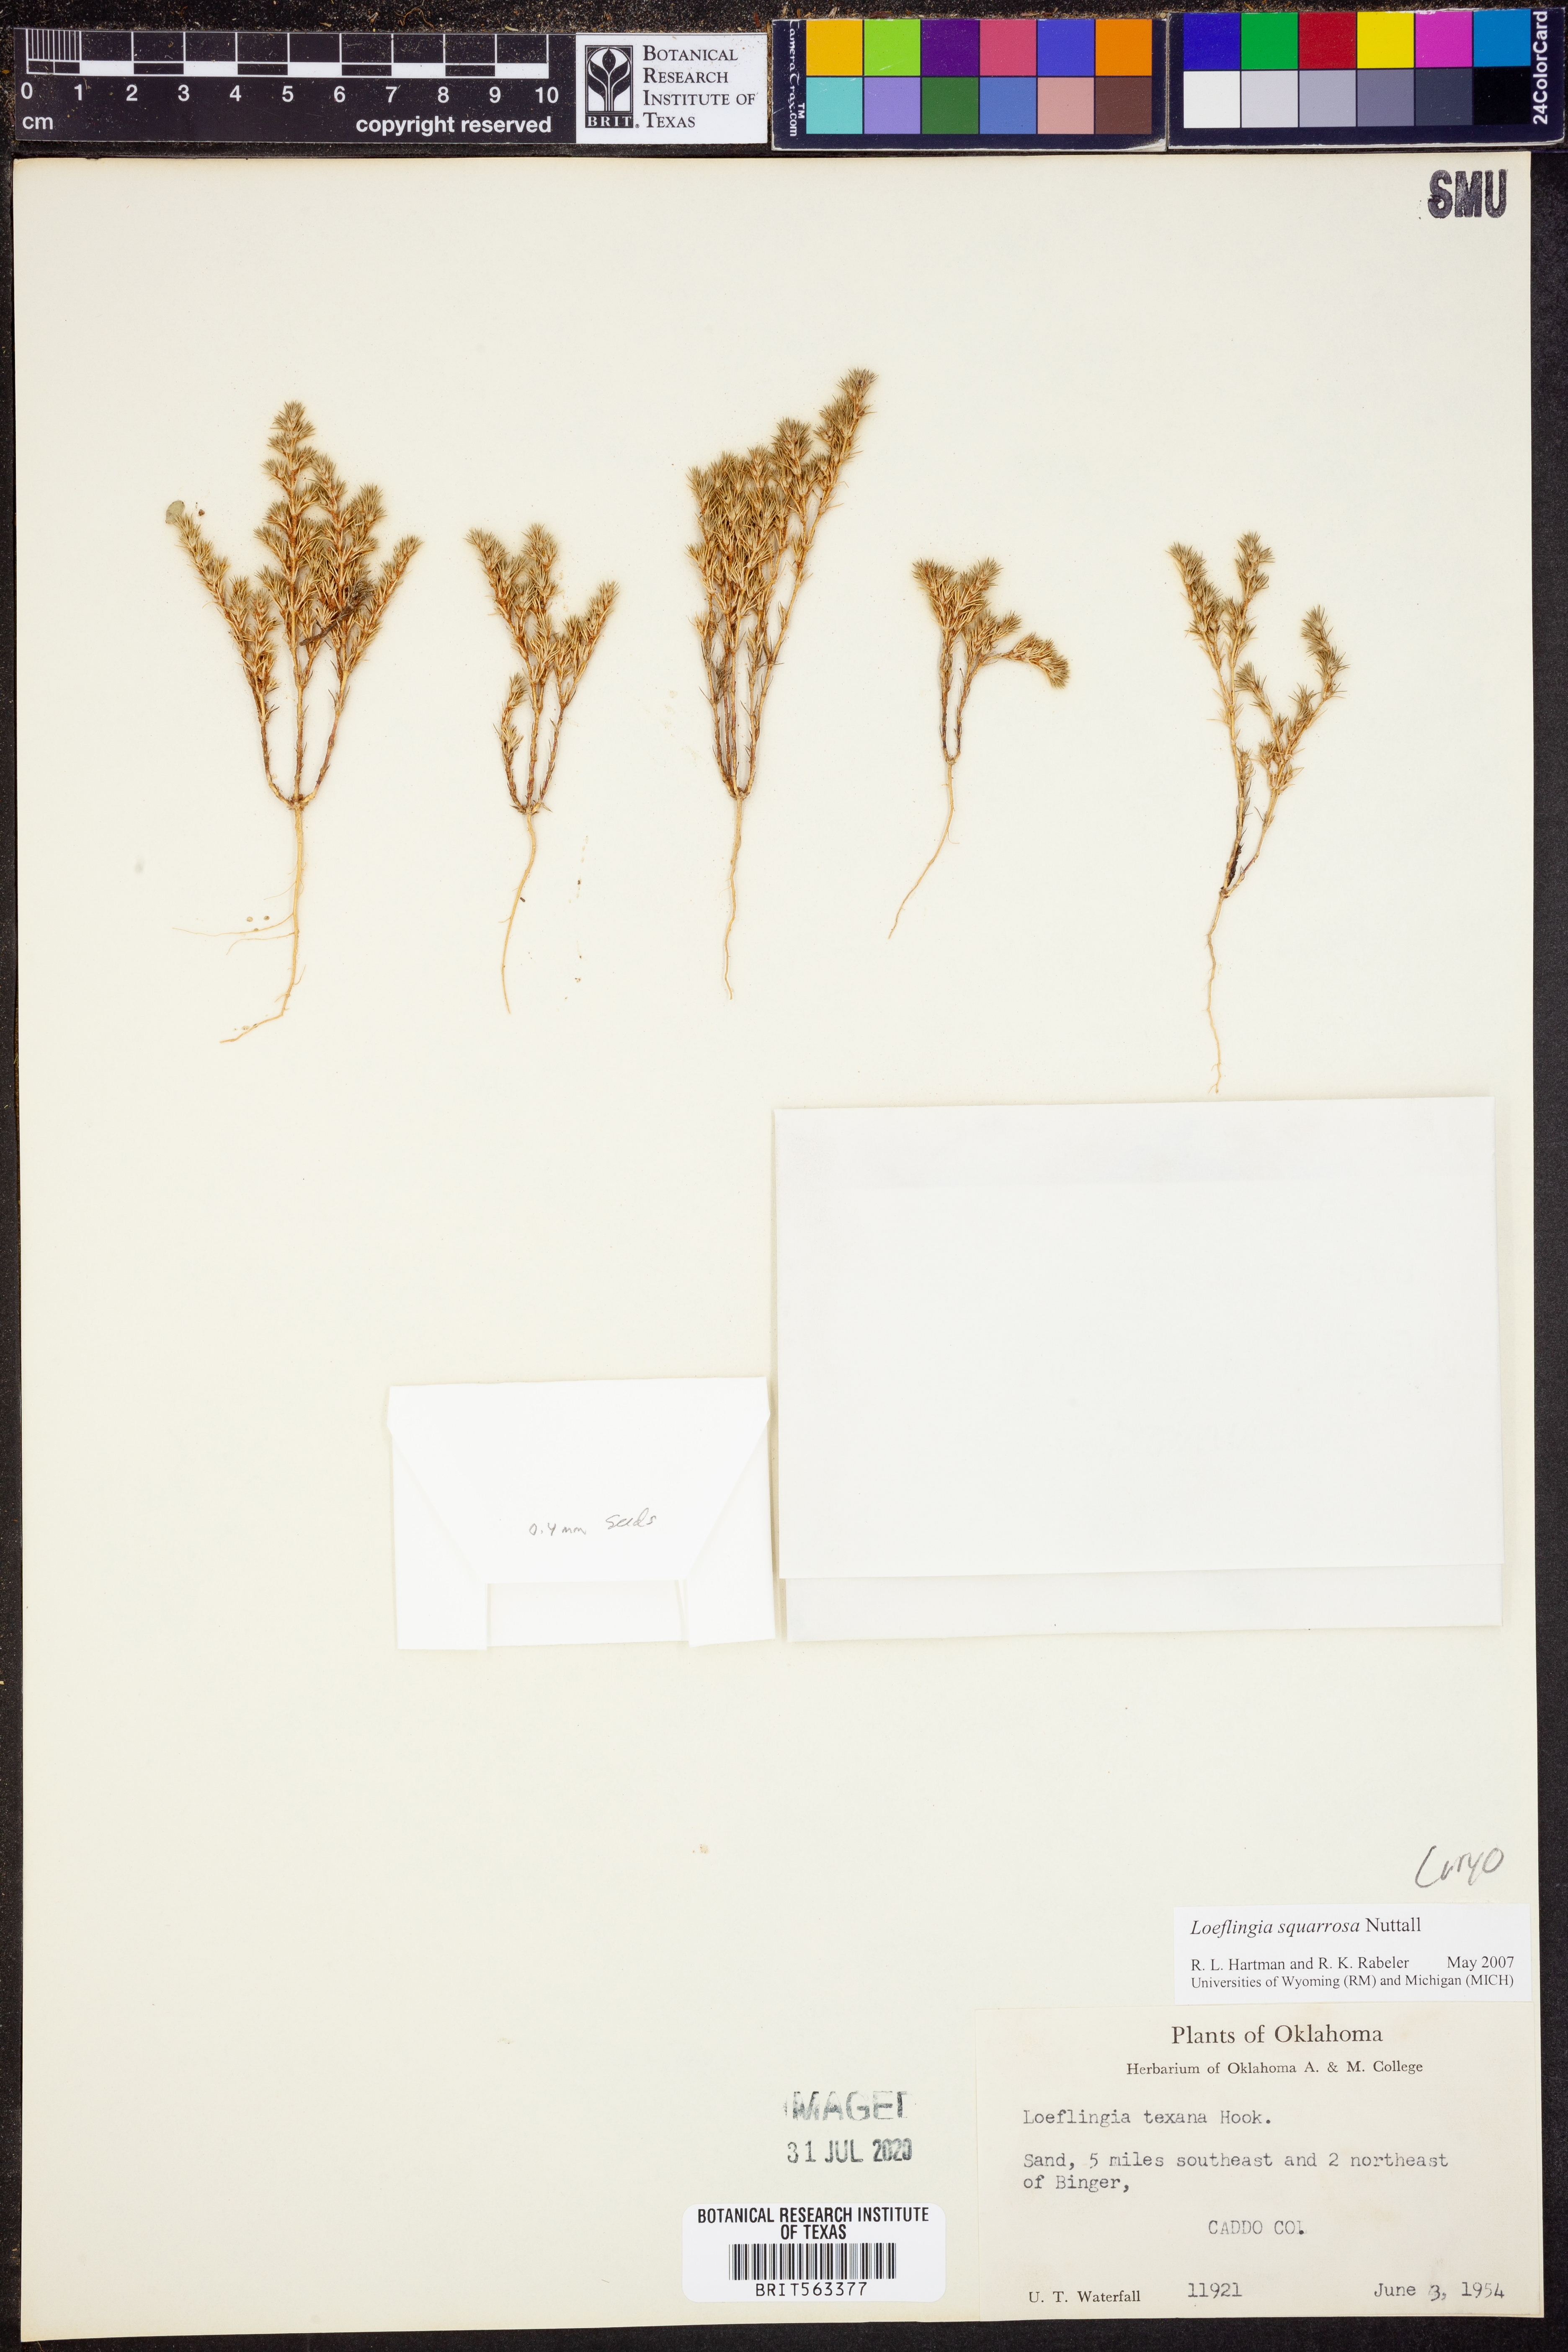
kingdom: Plantae
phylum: Tracheophyta
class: Magnoliopsida
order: Caryophyllales
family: Caryophyllaceae
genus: Loeflingia
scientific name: Loeflingia squarrosa
